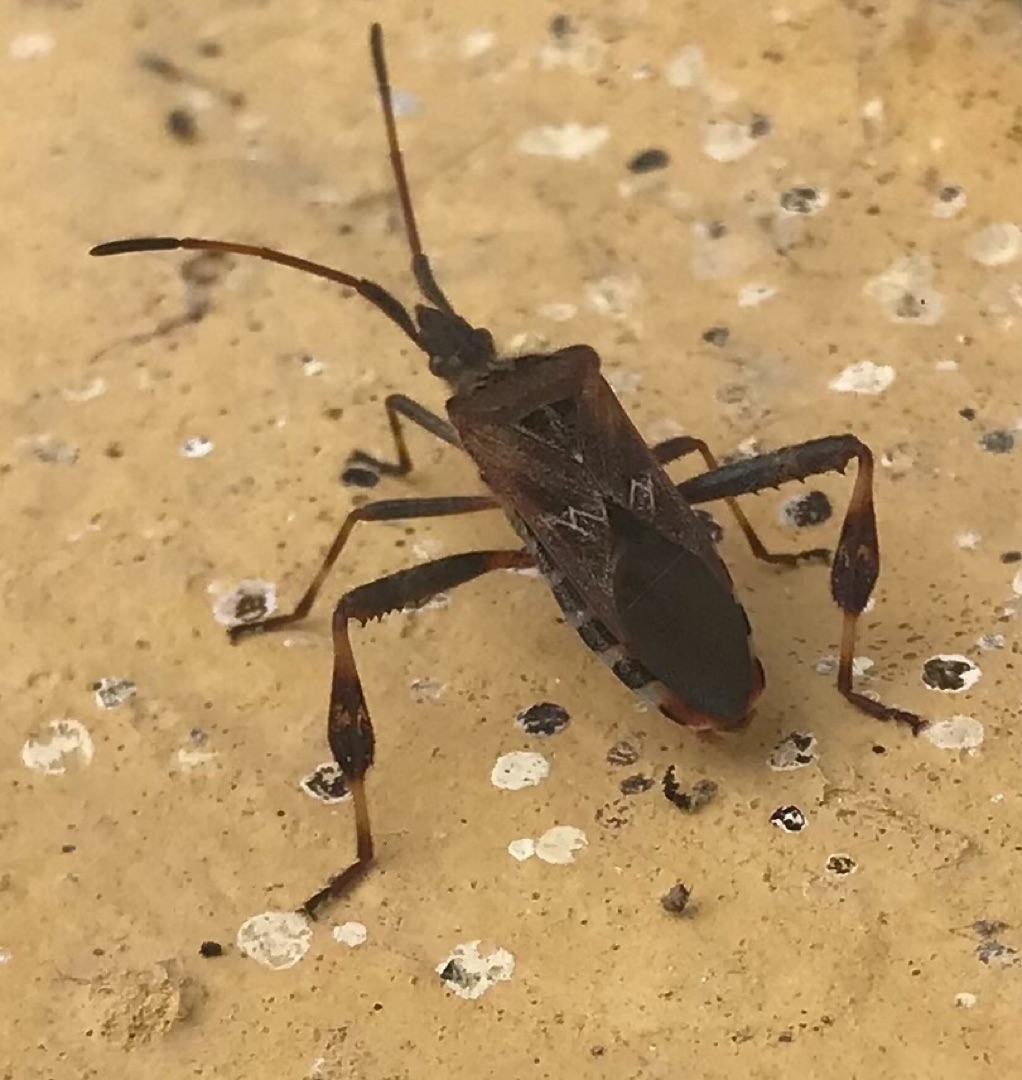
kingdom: Animalia
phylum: Arthropoda
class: Insecta
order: Hemiptera
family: Coreidae
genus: Leptoglossus
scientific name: Leptoglossus occidentalis
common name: Amerikansk fyrretæge
